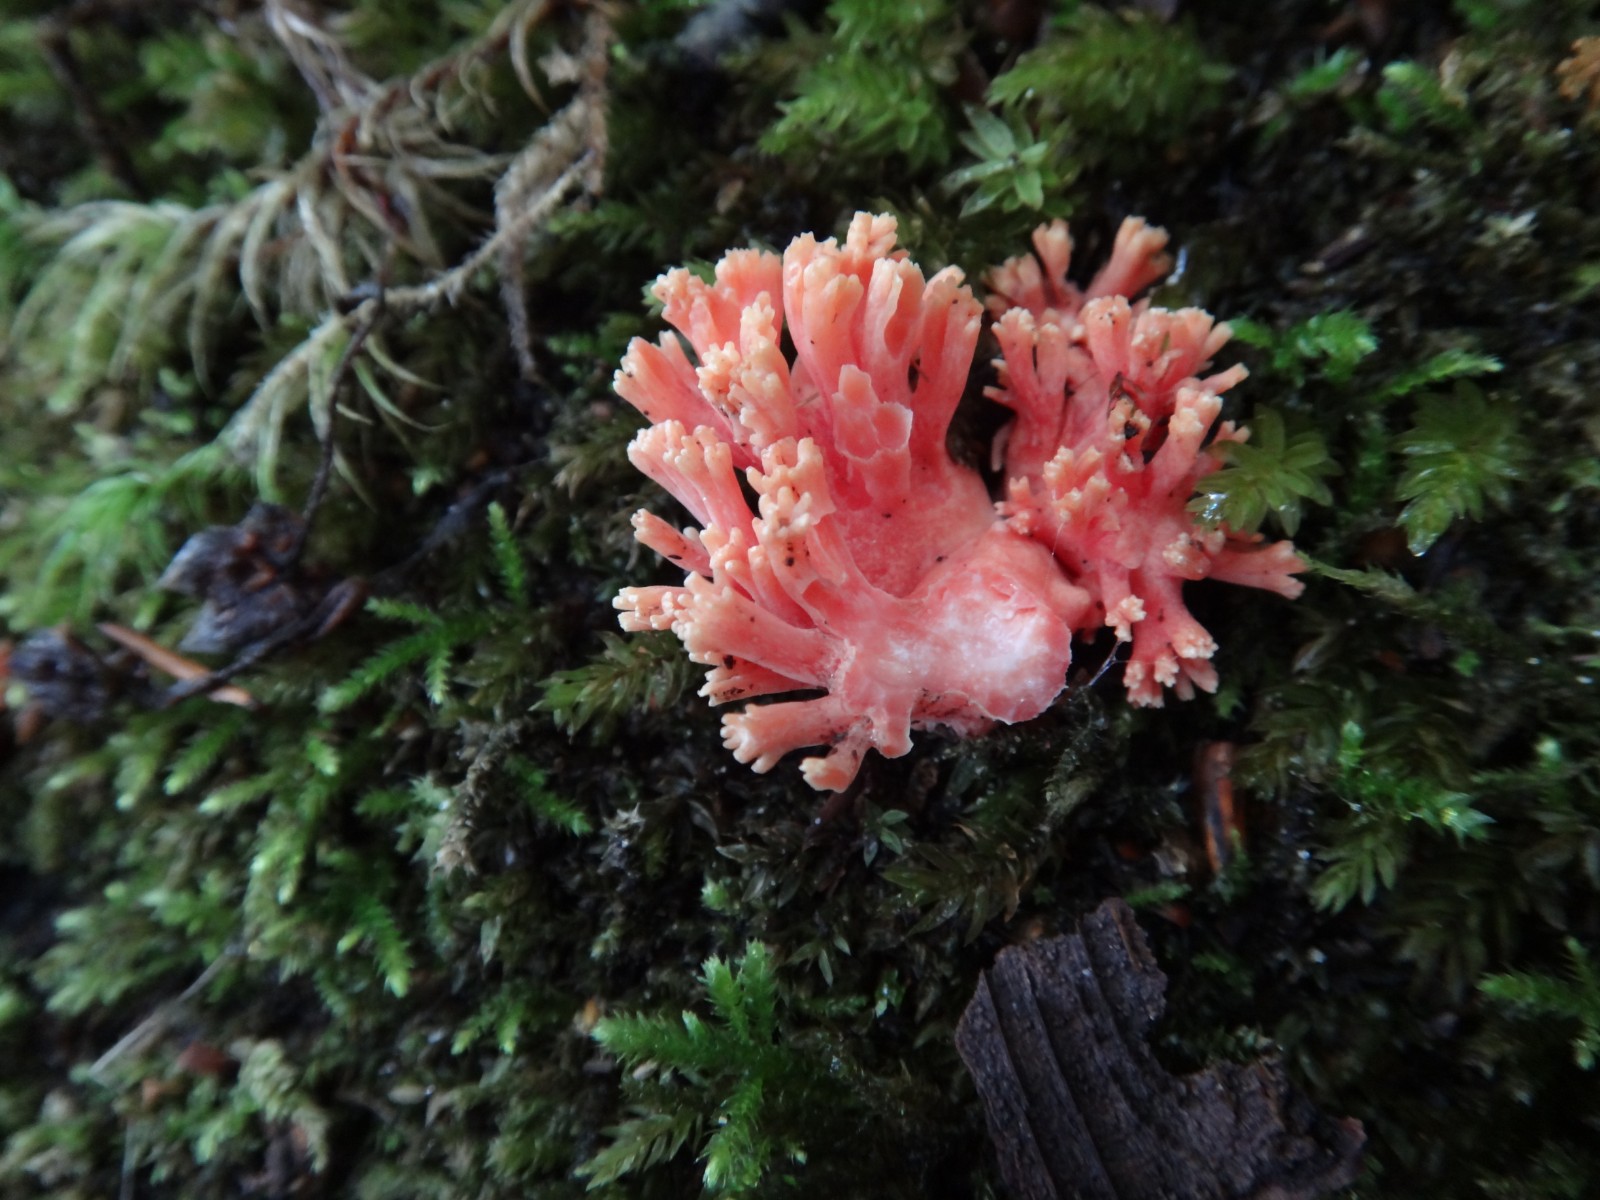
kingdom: Fungi
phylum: Basidiomycota
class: Agaricomycetes
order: Gomphales
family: Gomphaceae
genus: Ramaria
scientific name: Ramaria fagetorum
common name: abrikos-koralsvamp
